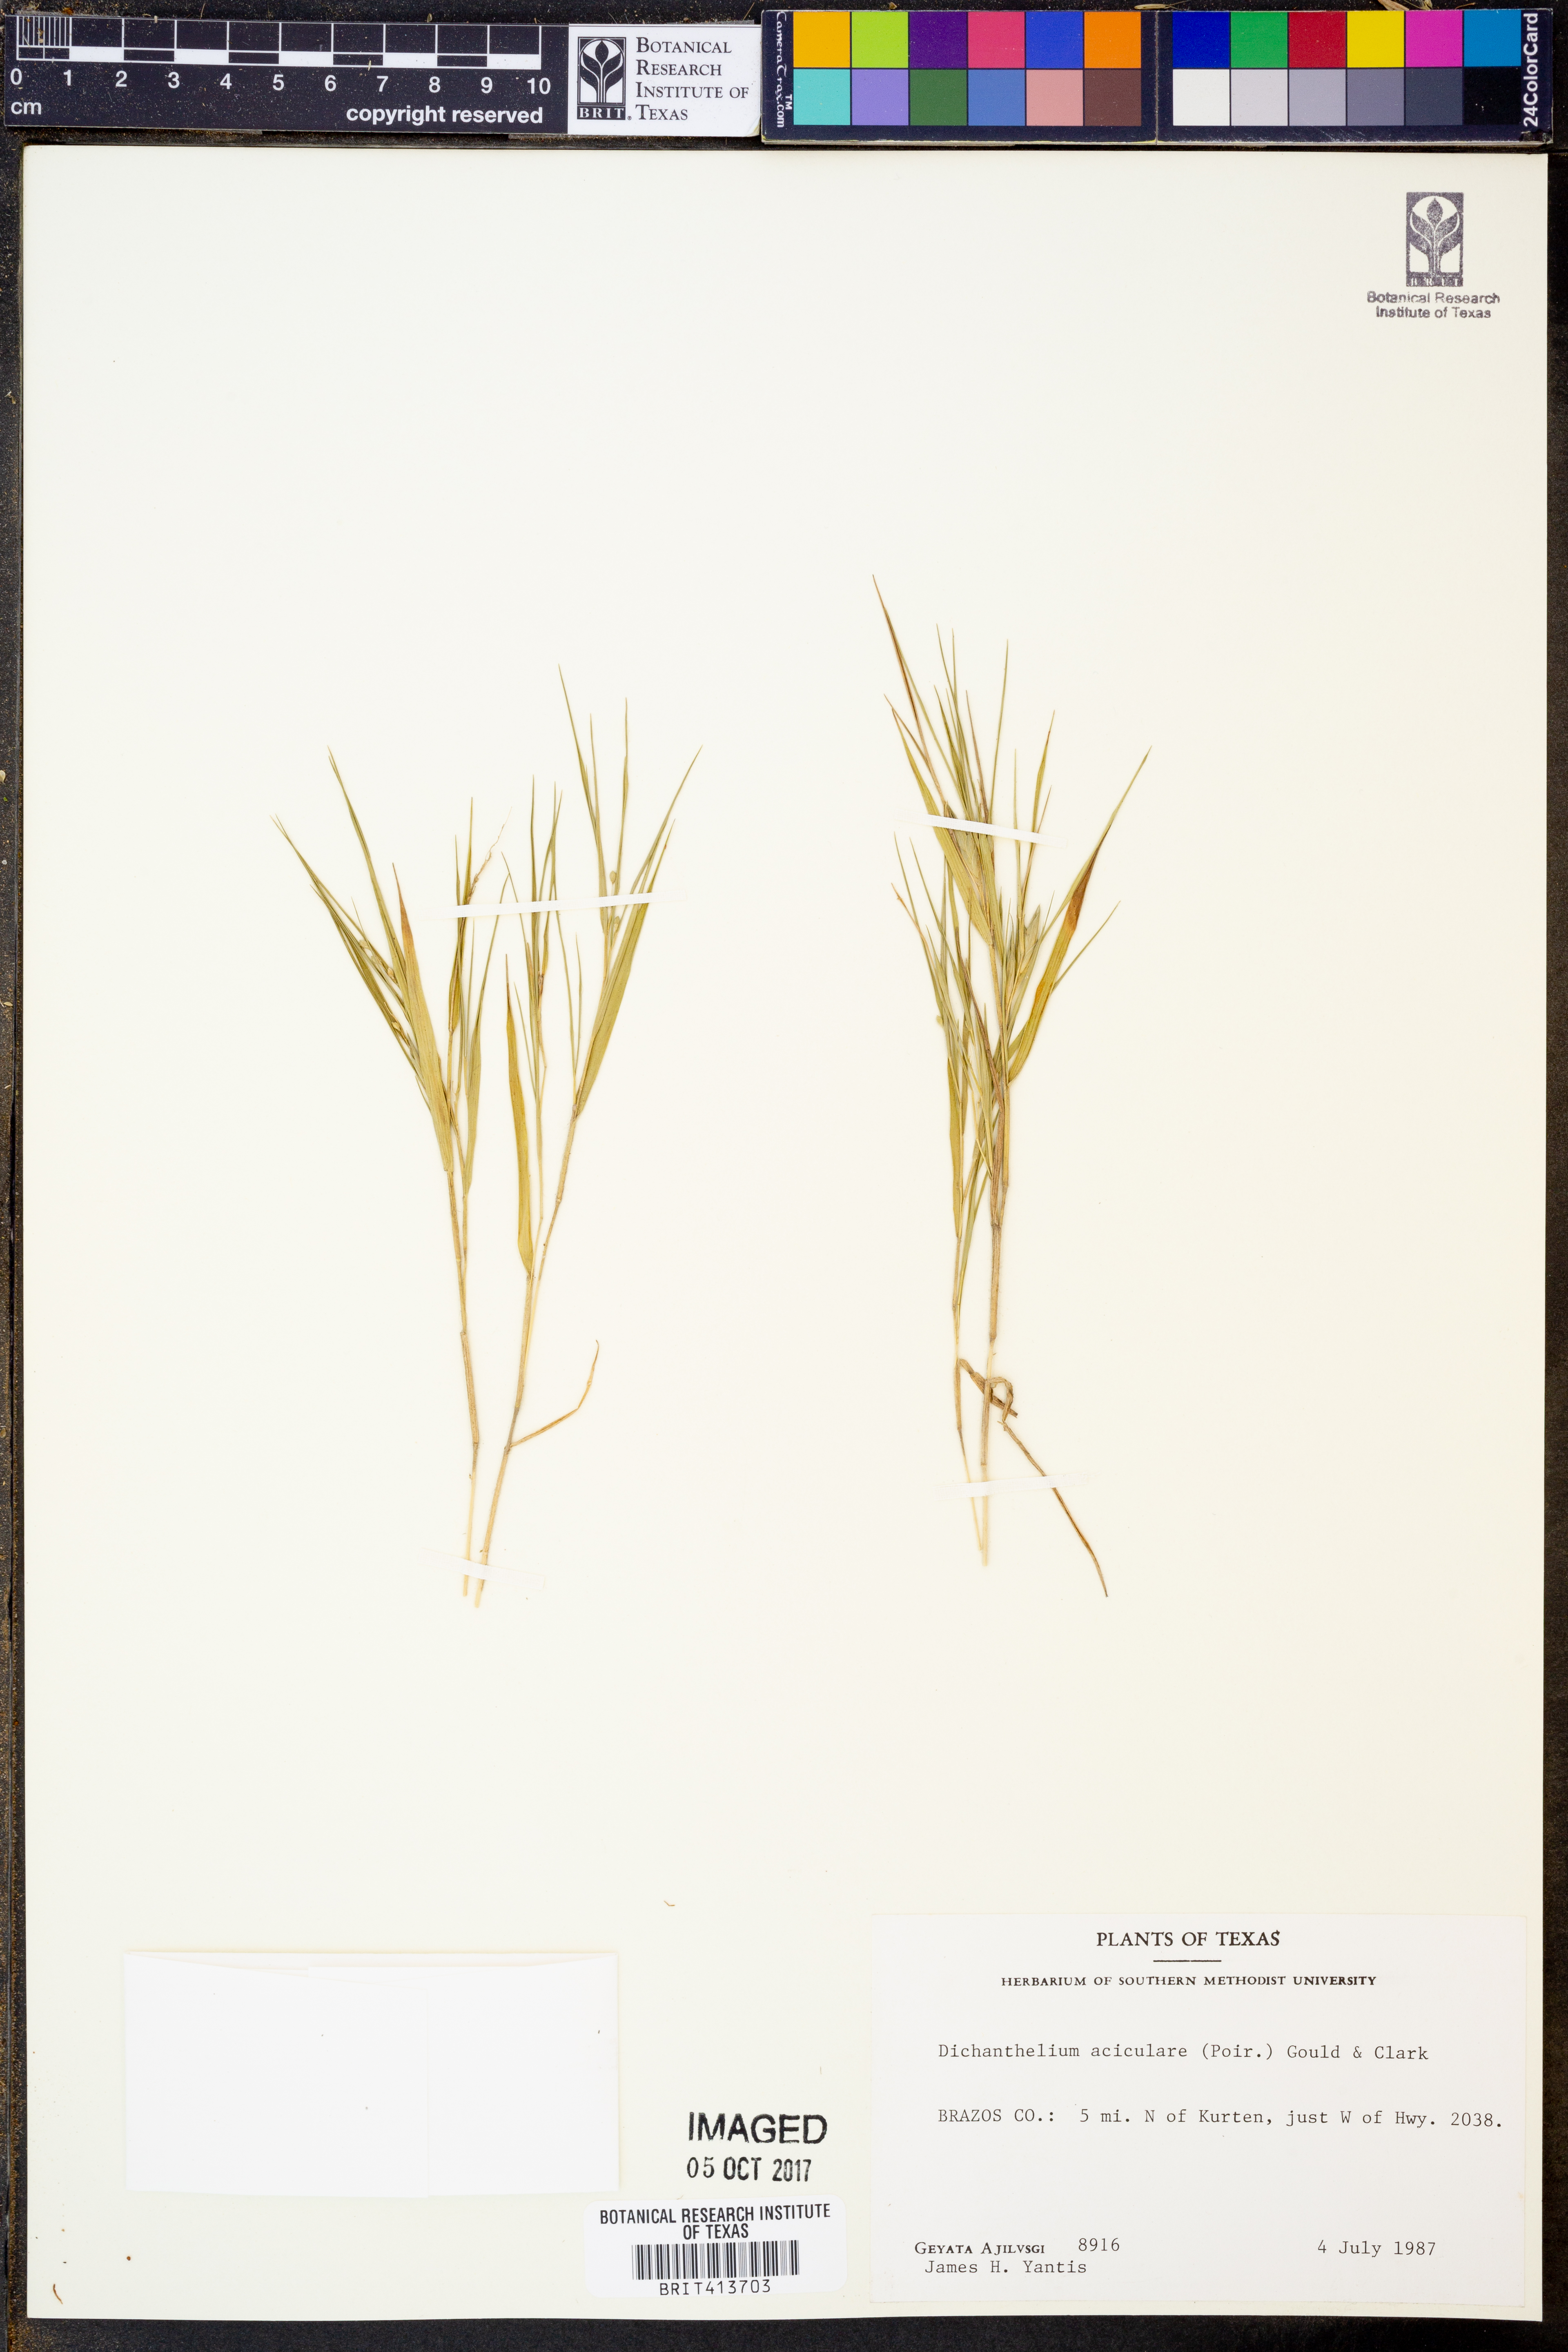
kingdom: Plantae
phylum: Tracheophyta
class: Liliopsida
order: Poales
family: Poaceae
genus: Dichanthelium
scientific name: Dichanthelium aciculare
